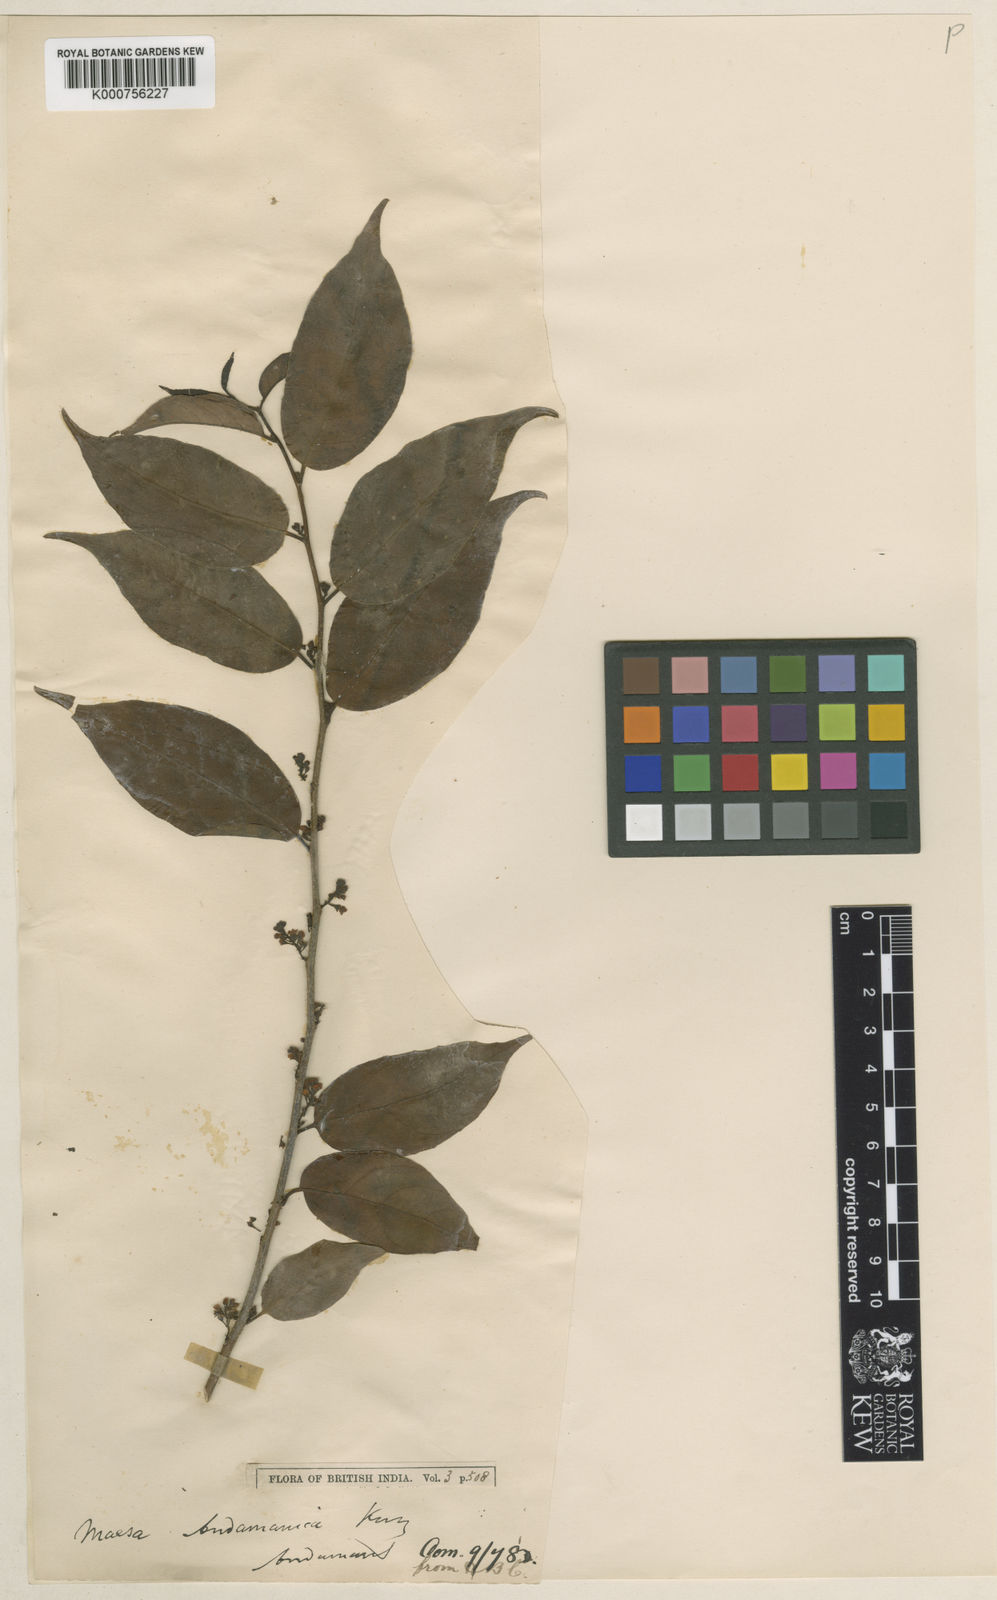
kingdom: Plantae
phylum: Tracheophyta
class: Magnoliopsida
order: Ericales
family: Primulaceae
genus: Maesa
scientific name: Maesa andamanica
